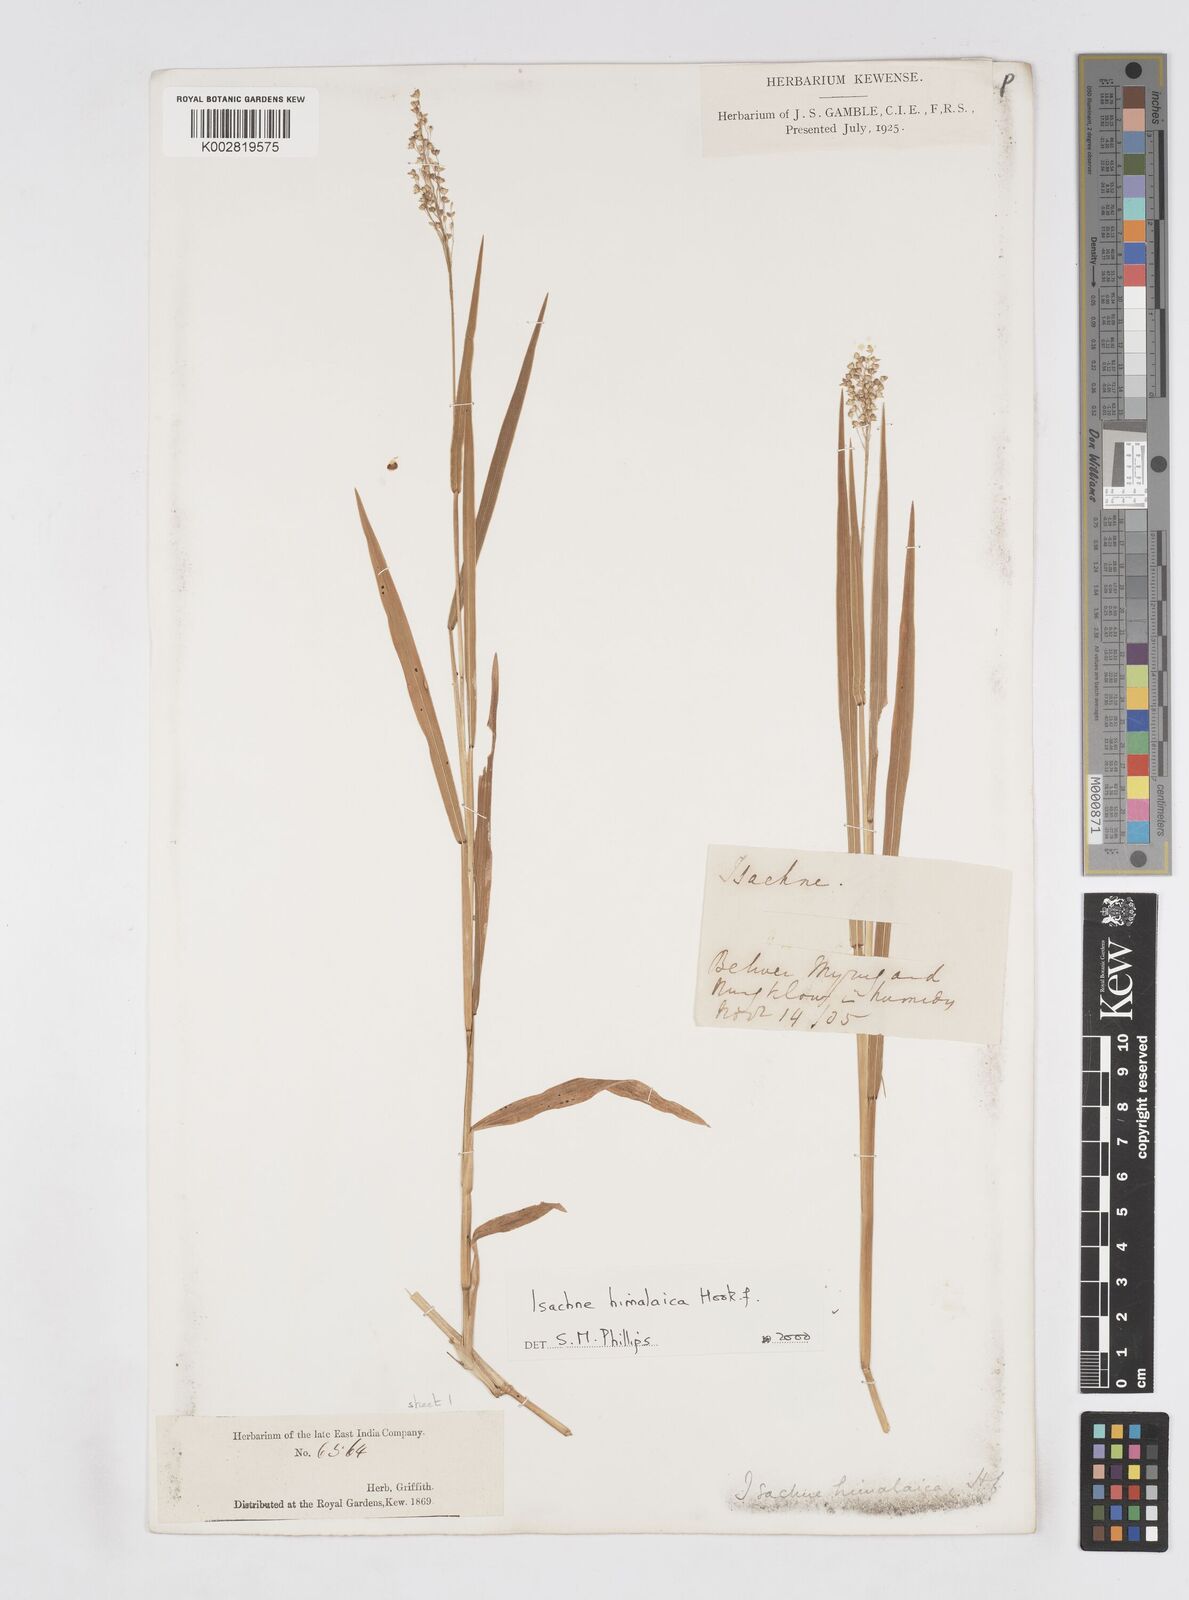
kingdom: Plantae
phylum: Tracheophyta
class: Liliopsida
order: Poales
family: Poaceae
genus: Isachne
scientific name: Isachne himalaica
